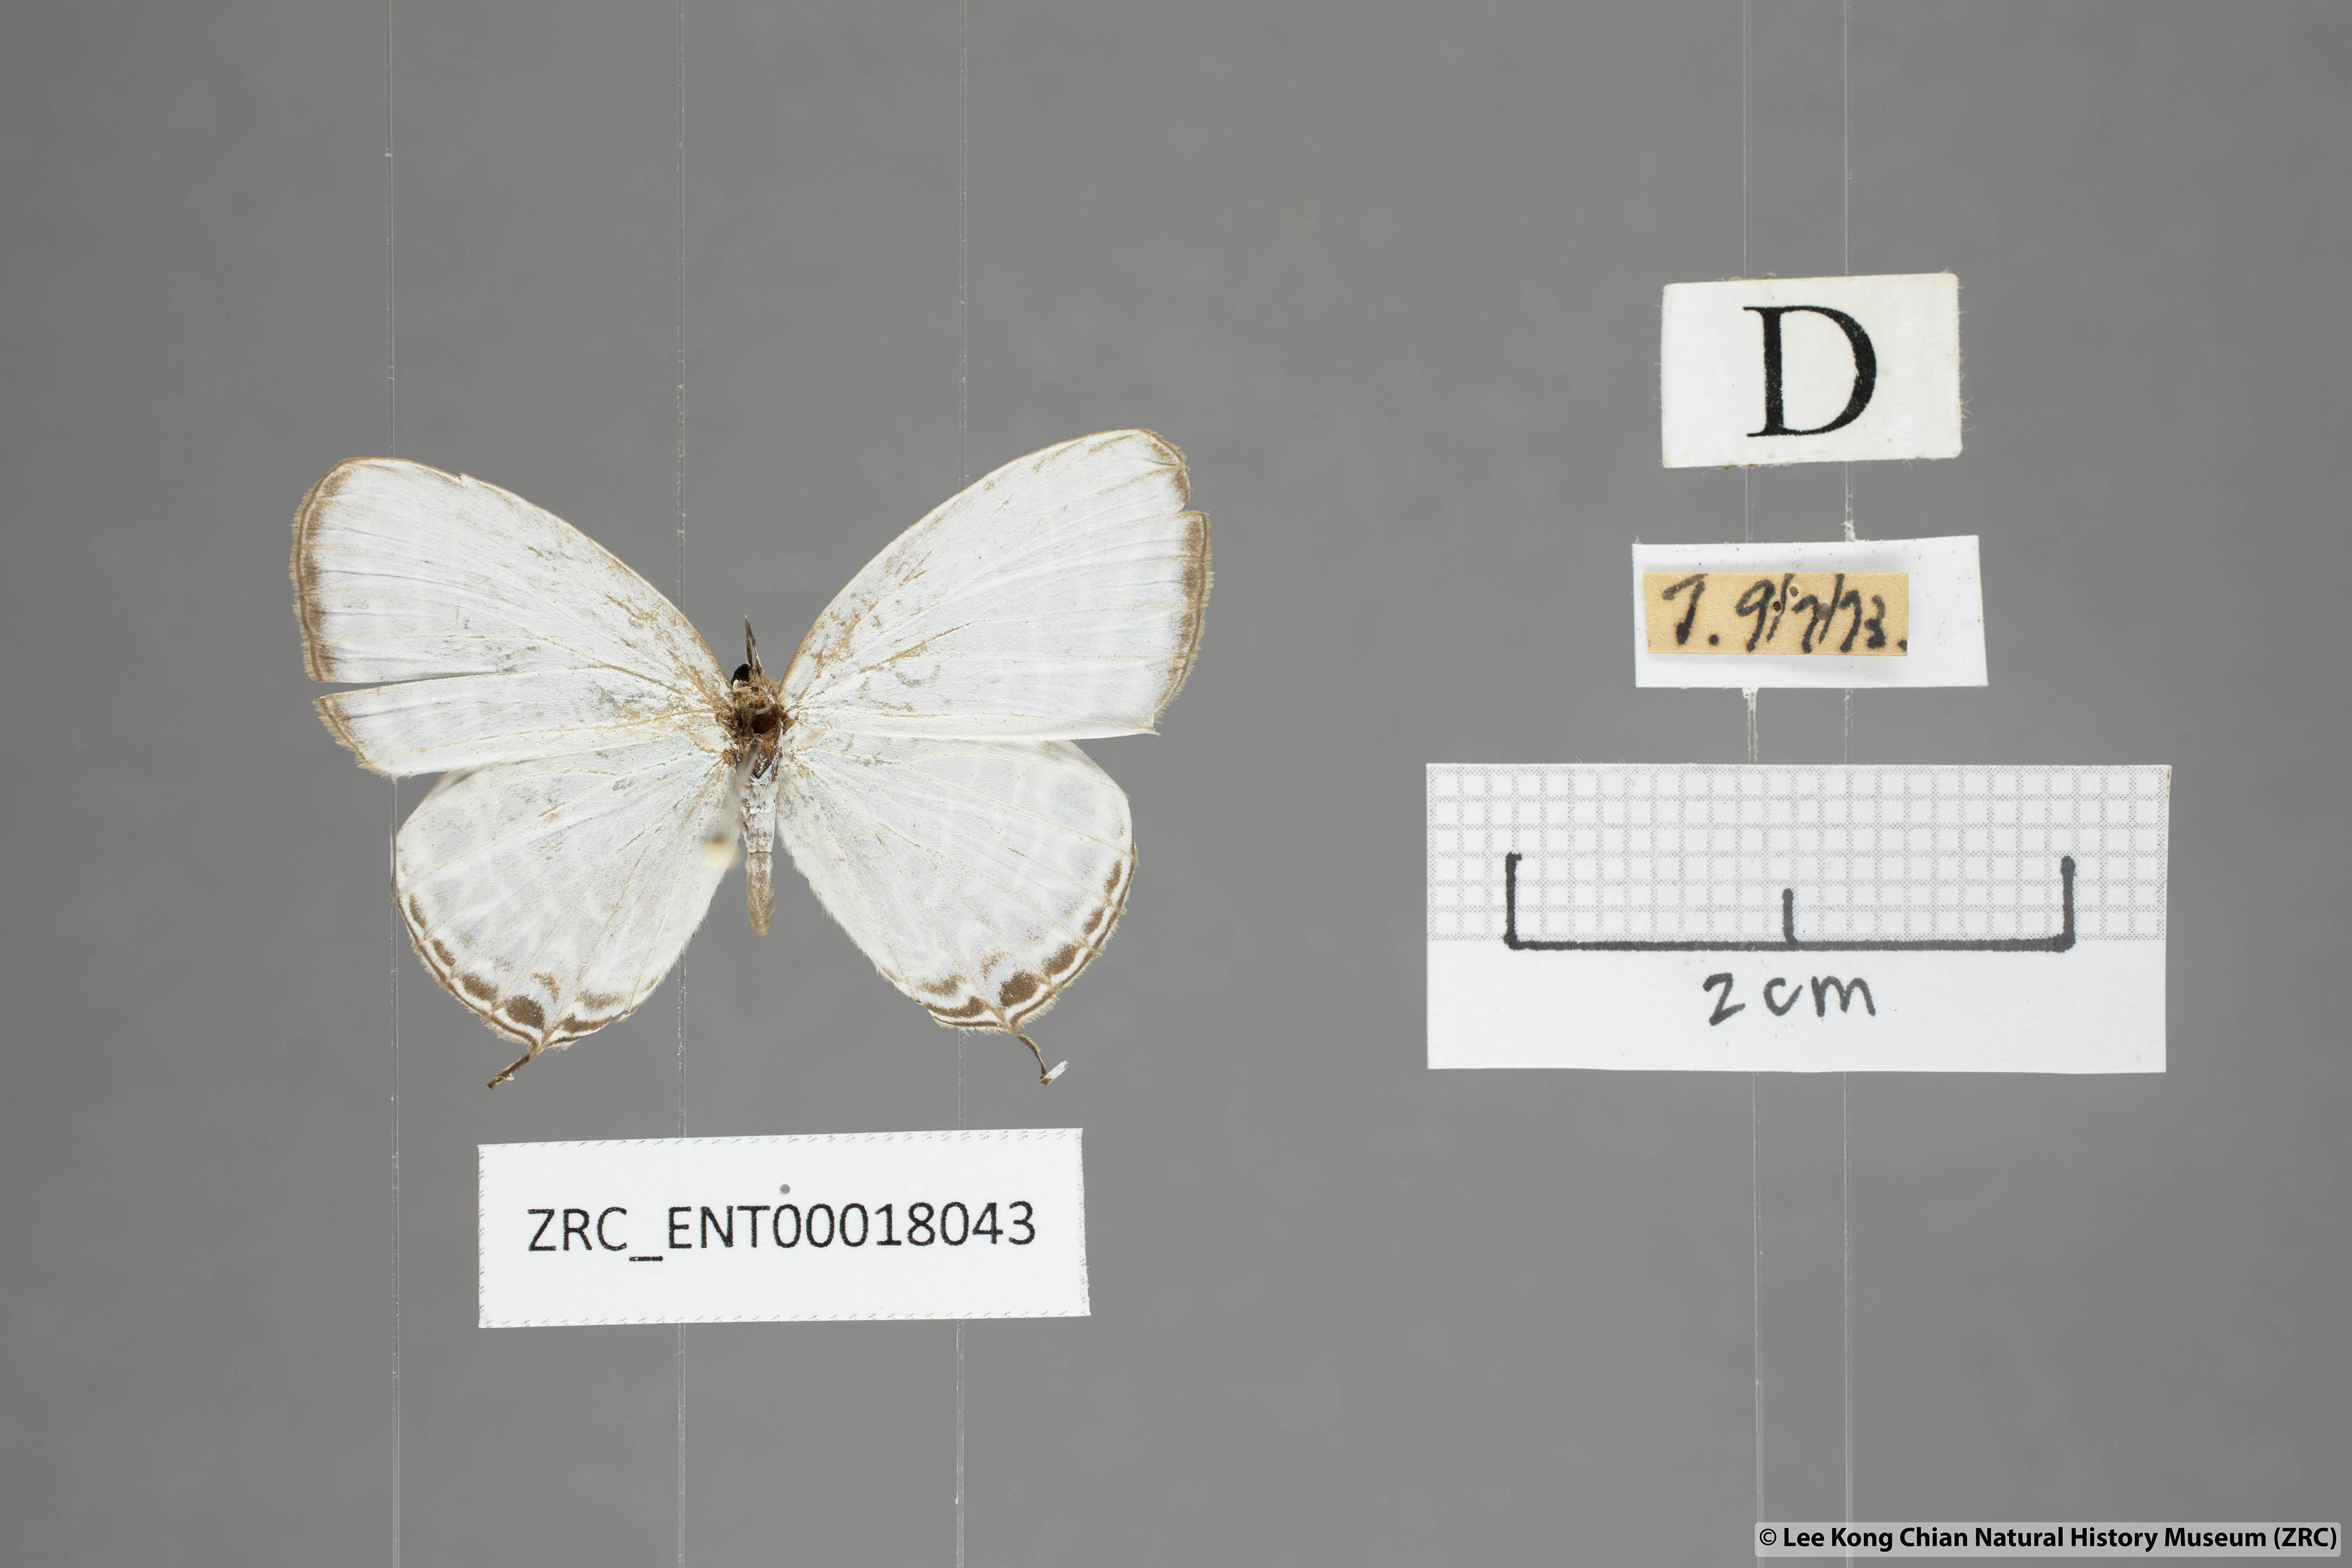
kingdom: Animalia
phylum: Arthropoda
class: Insecta
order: Lepidoptera
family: Lycaenidae
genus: Jamides
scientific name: Jamides aratus
